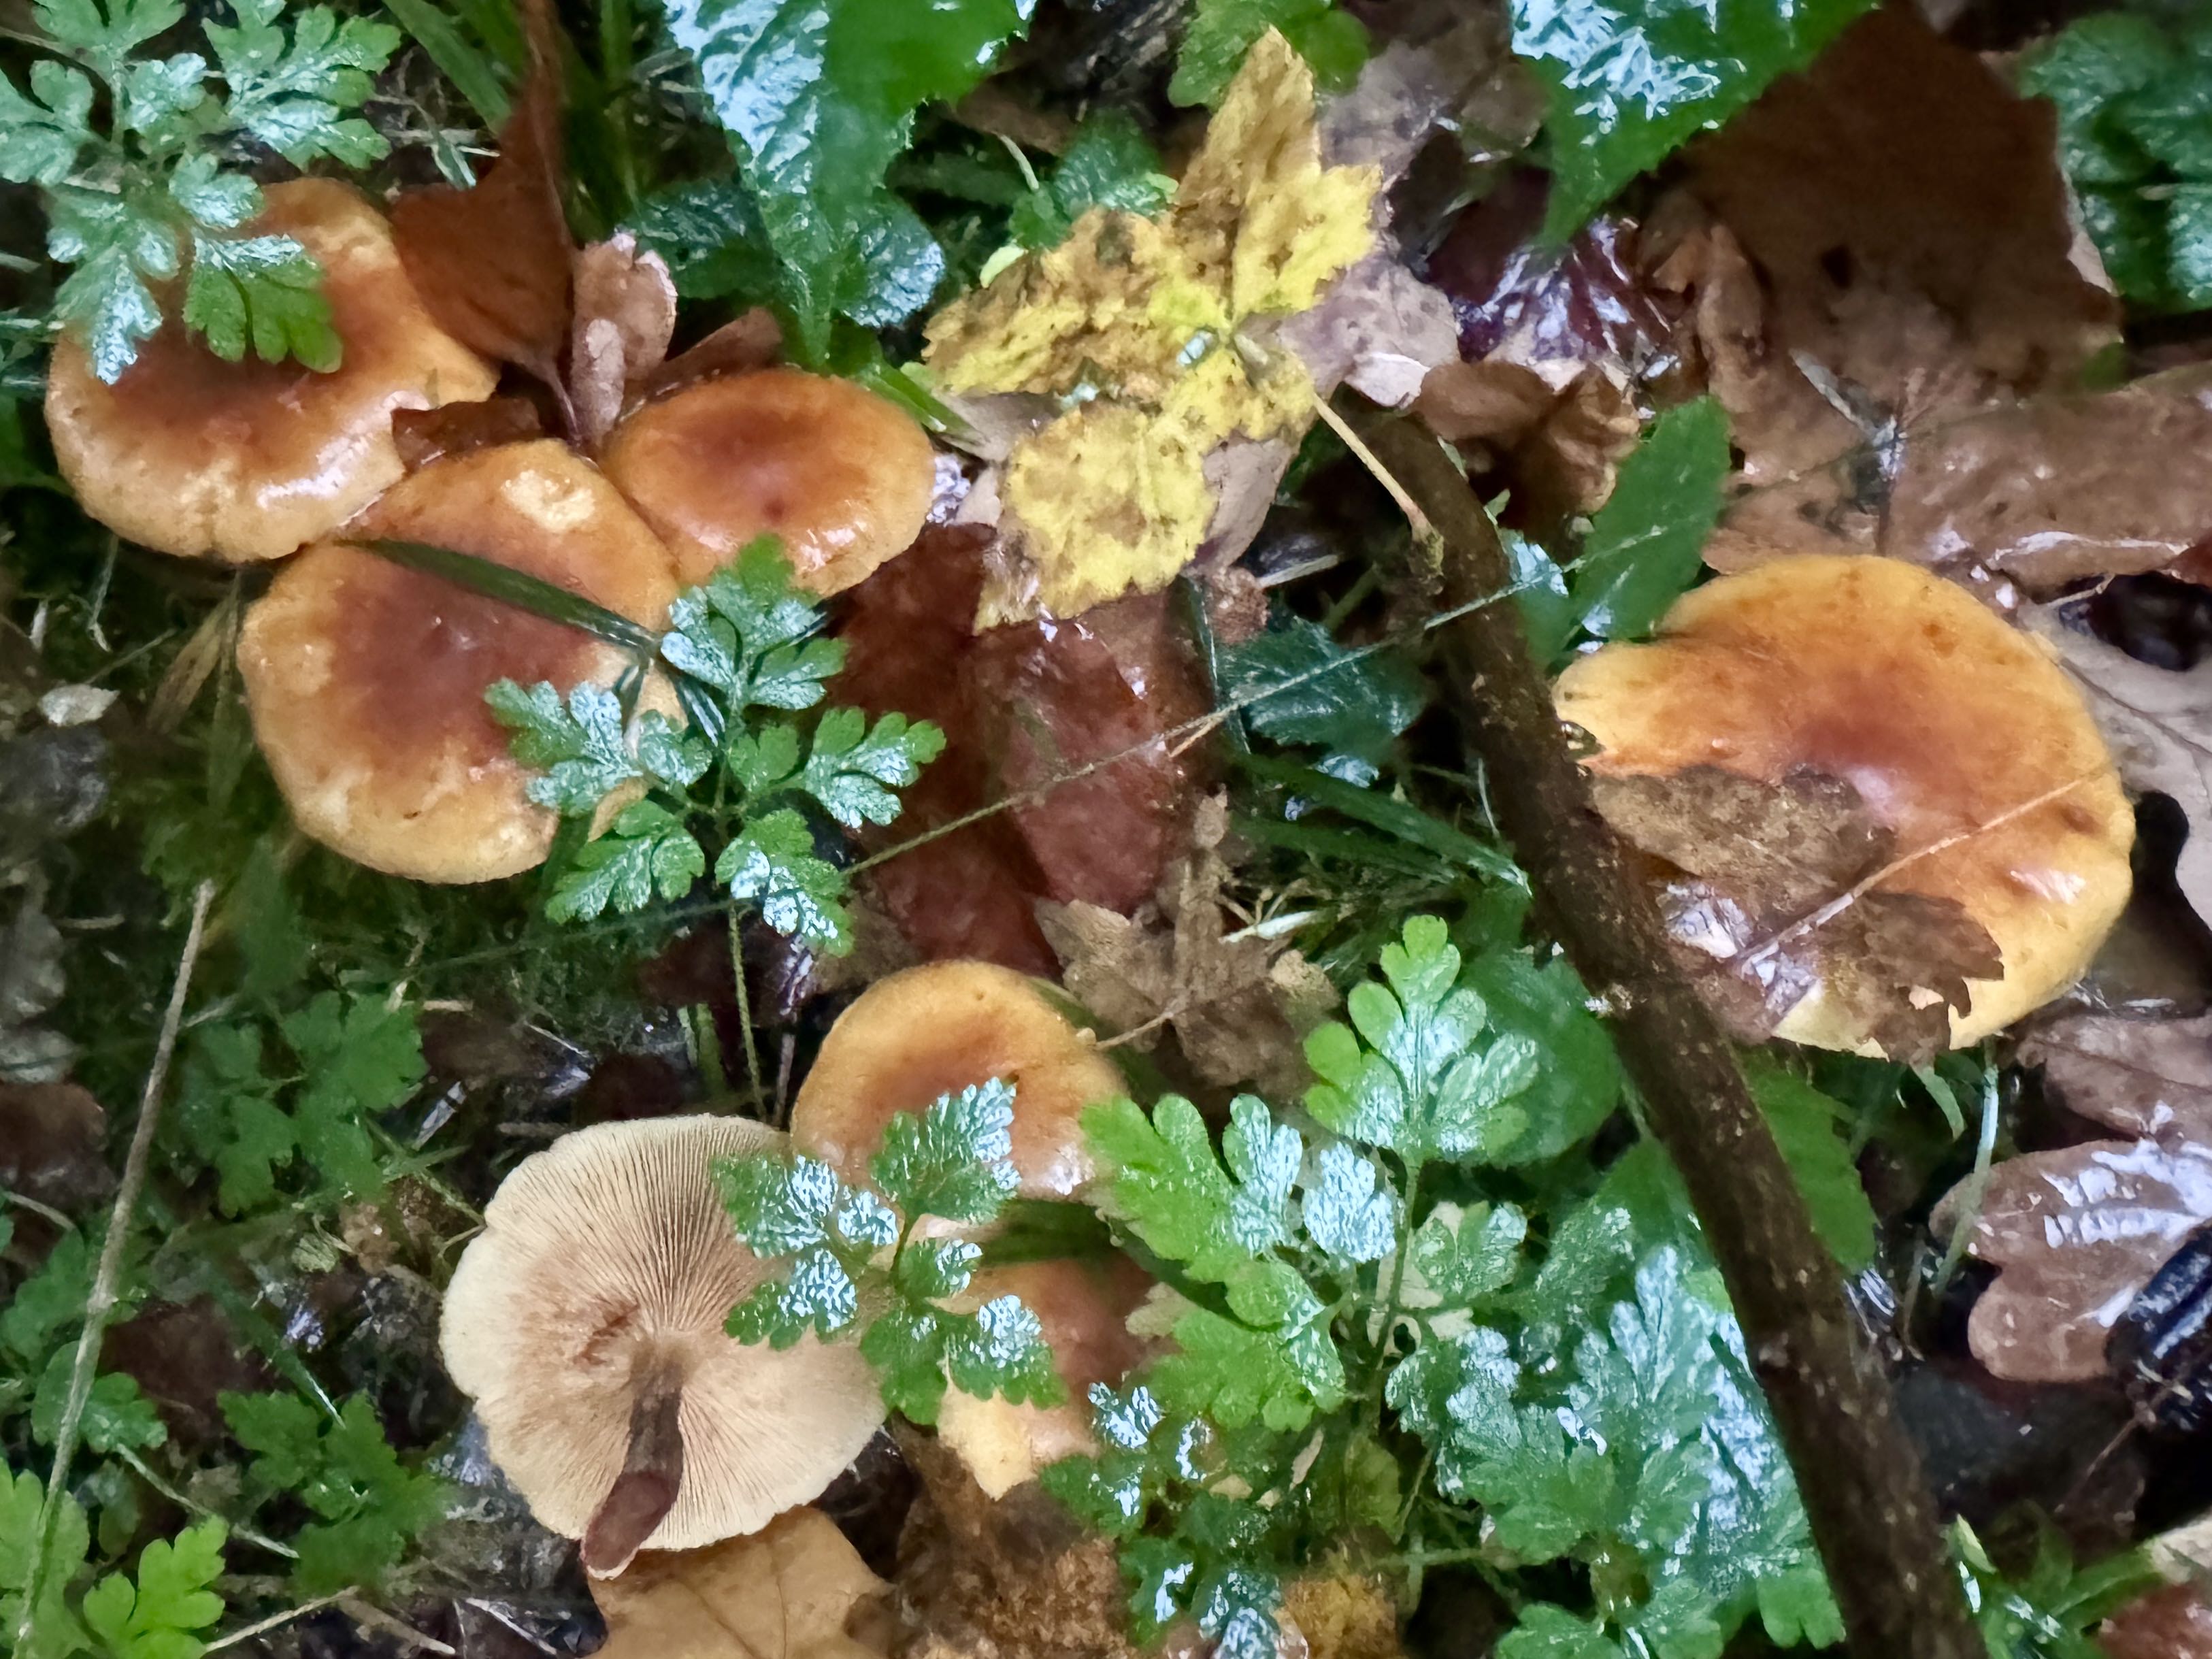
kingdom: Fungi
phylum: Basidiomycota
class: Agaricomycetes
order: Agaricales
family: Hymenogastraceae
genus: Gymnopilus
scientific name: Gymnopilus penetrans
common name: plettet flammehat
